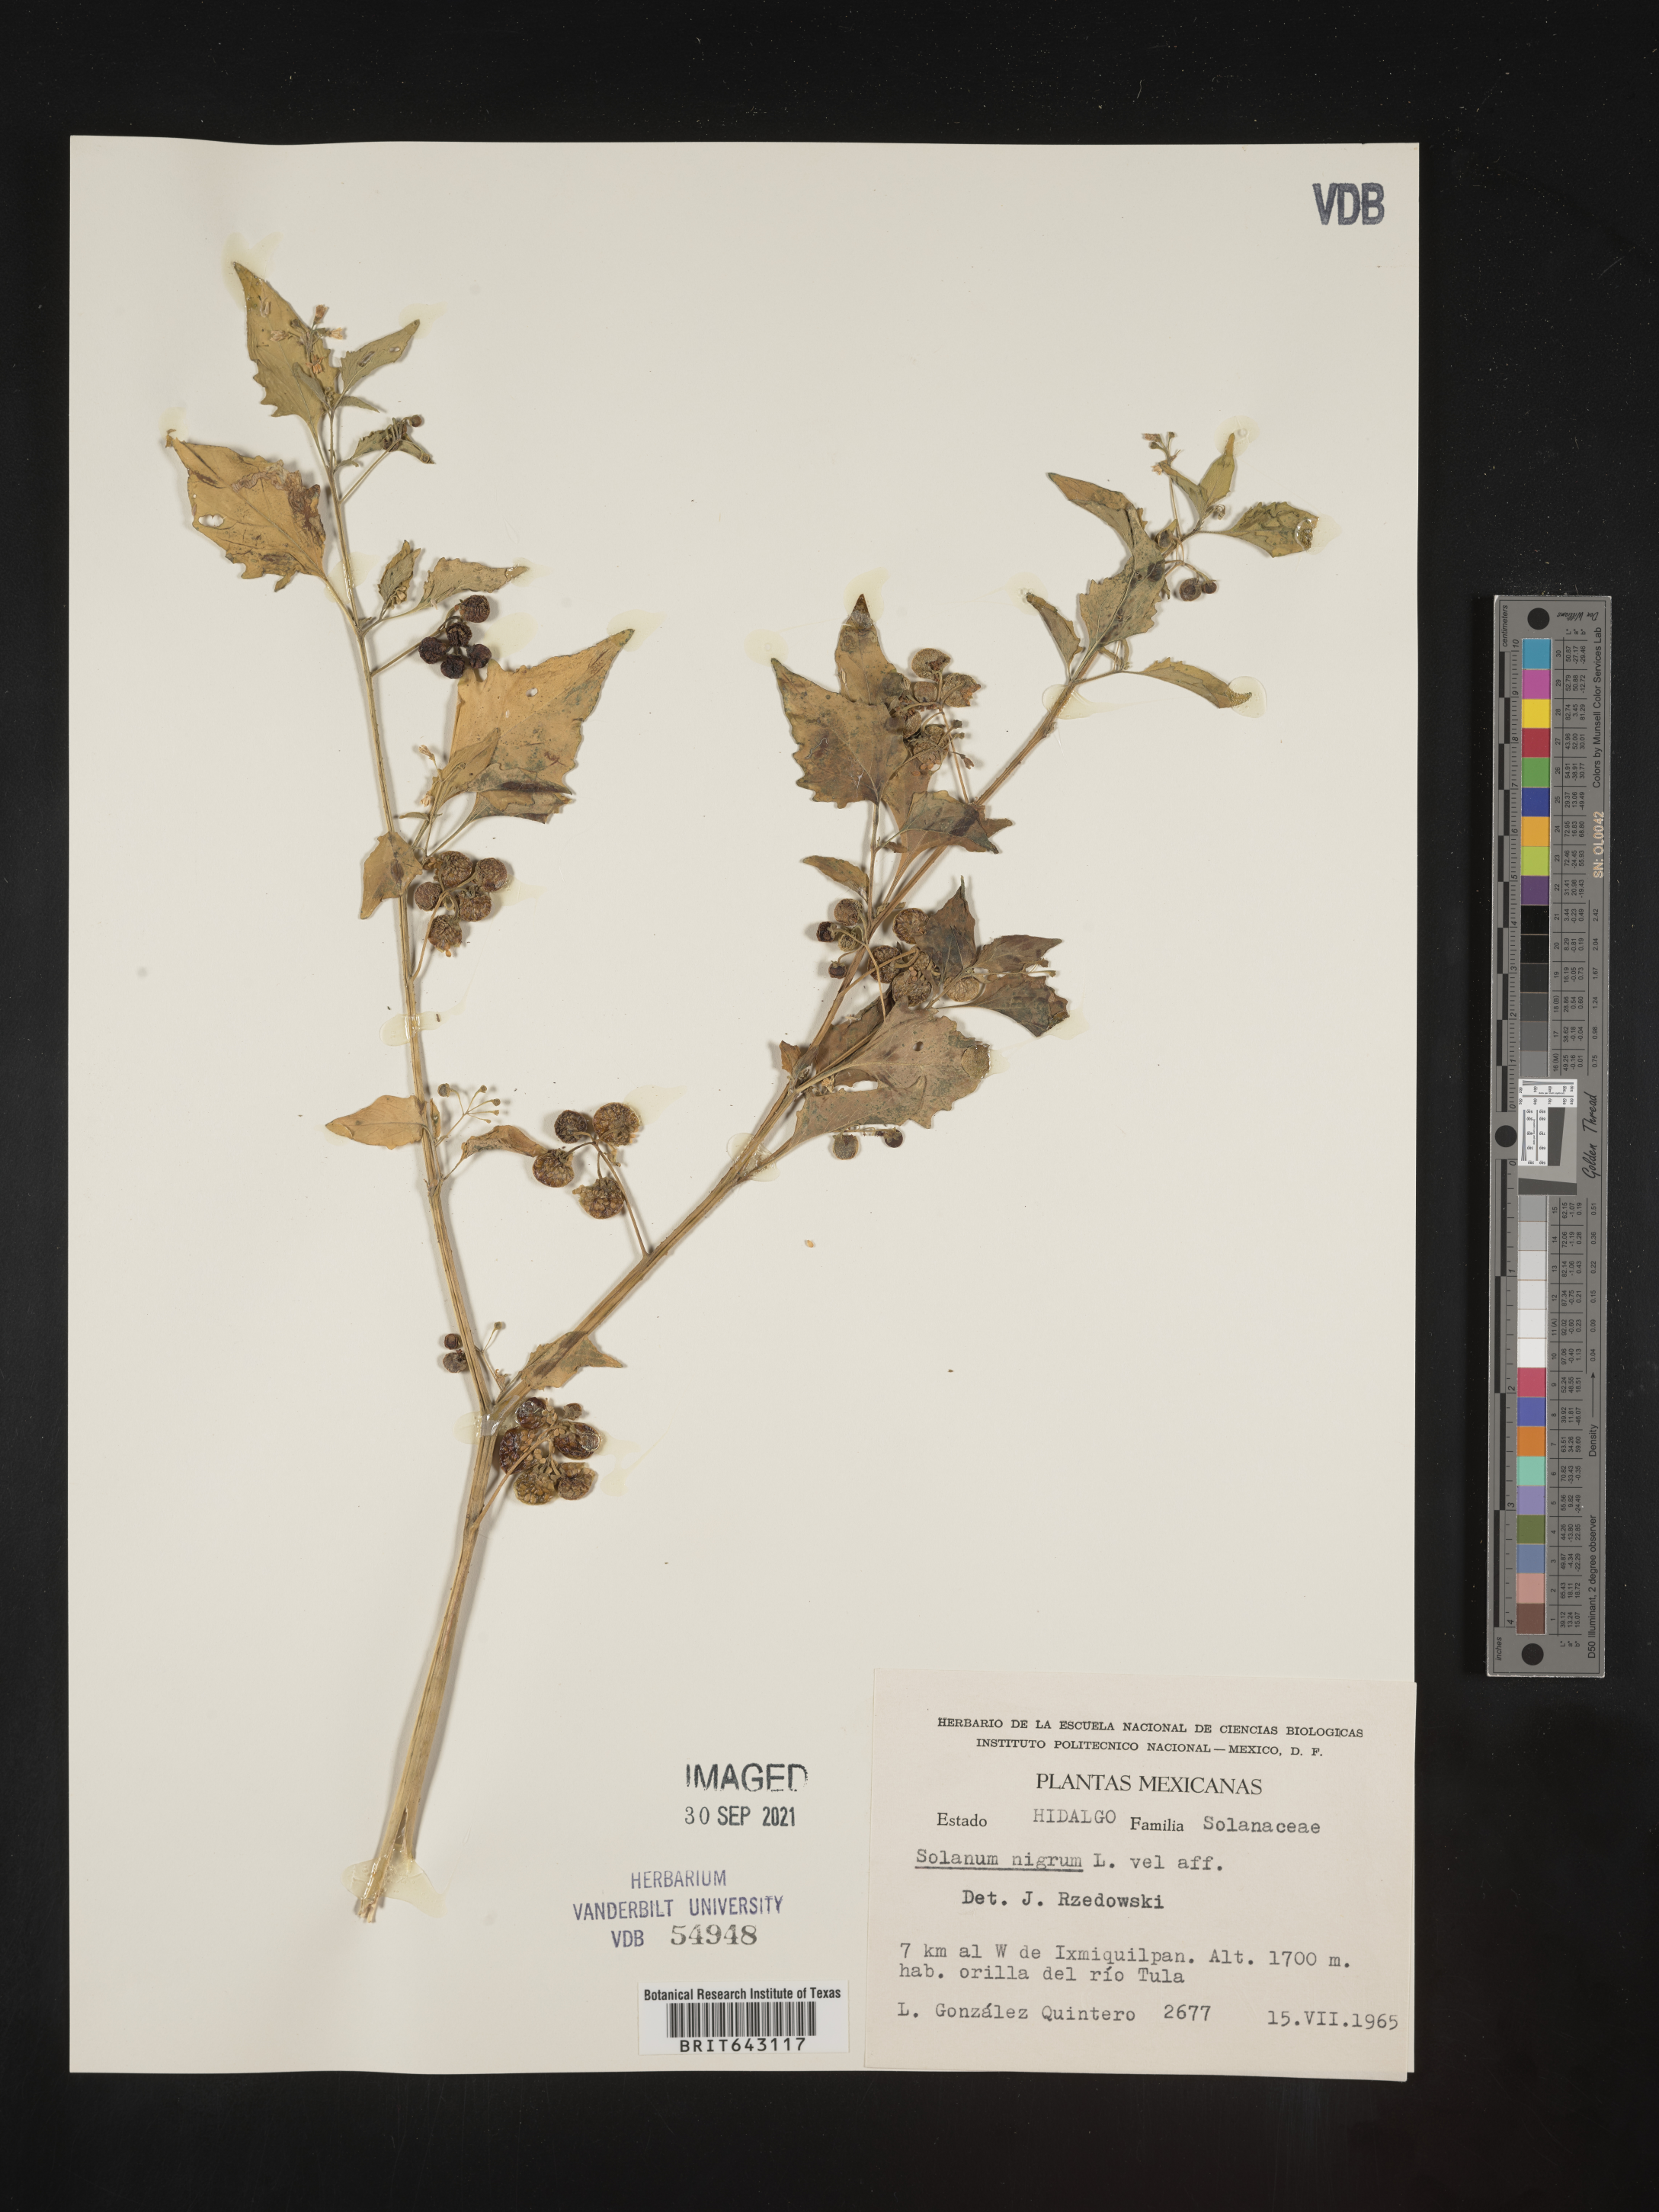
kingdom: Plantae
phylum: Tracheophyta
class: Magnoliopsida
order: Solanales
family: Solanaceae
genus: Solanum
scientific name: Solanum
